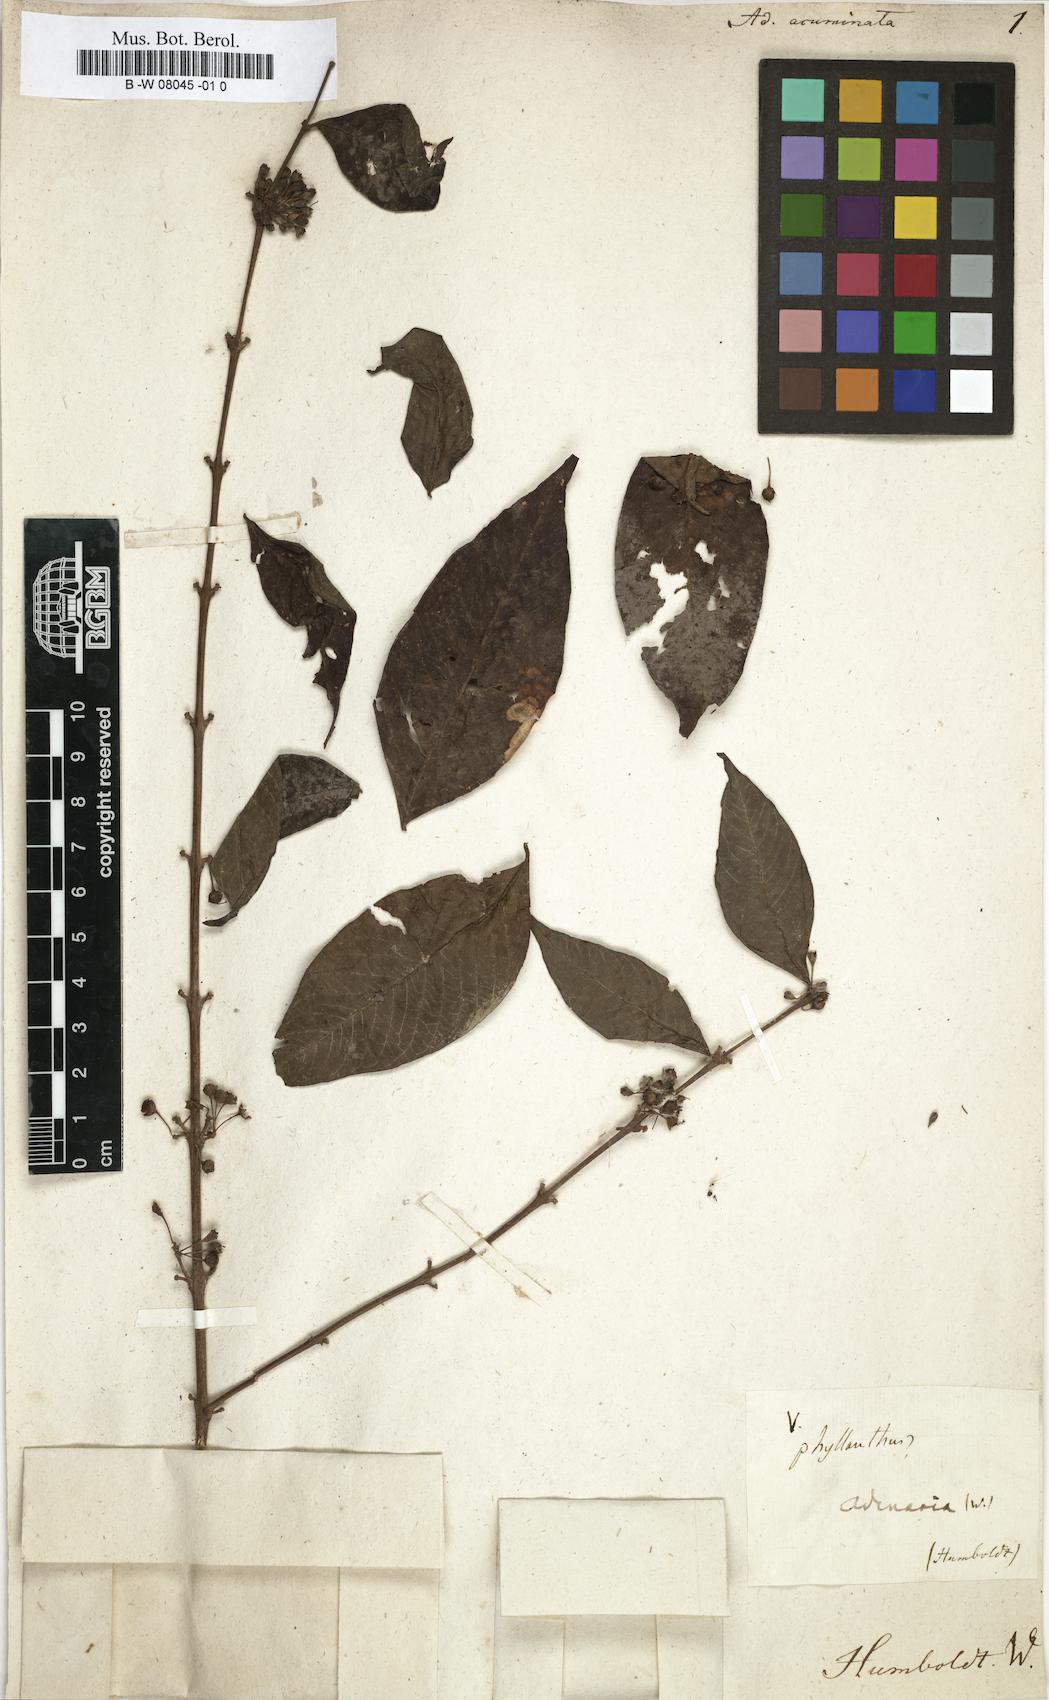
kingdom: Plantae
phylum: Tracheophyta
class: Magnoliopsida
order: Myrtales
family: Lythraceae
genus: Adenaria
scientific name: Adenaria
